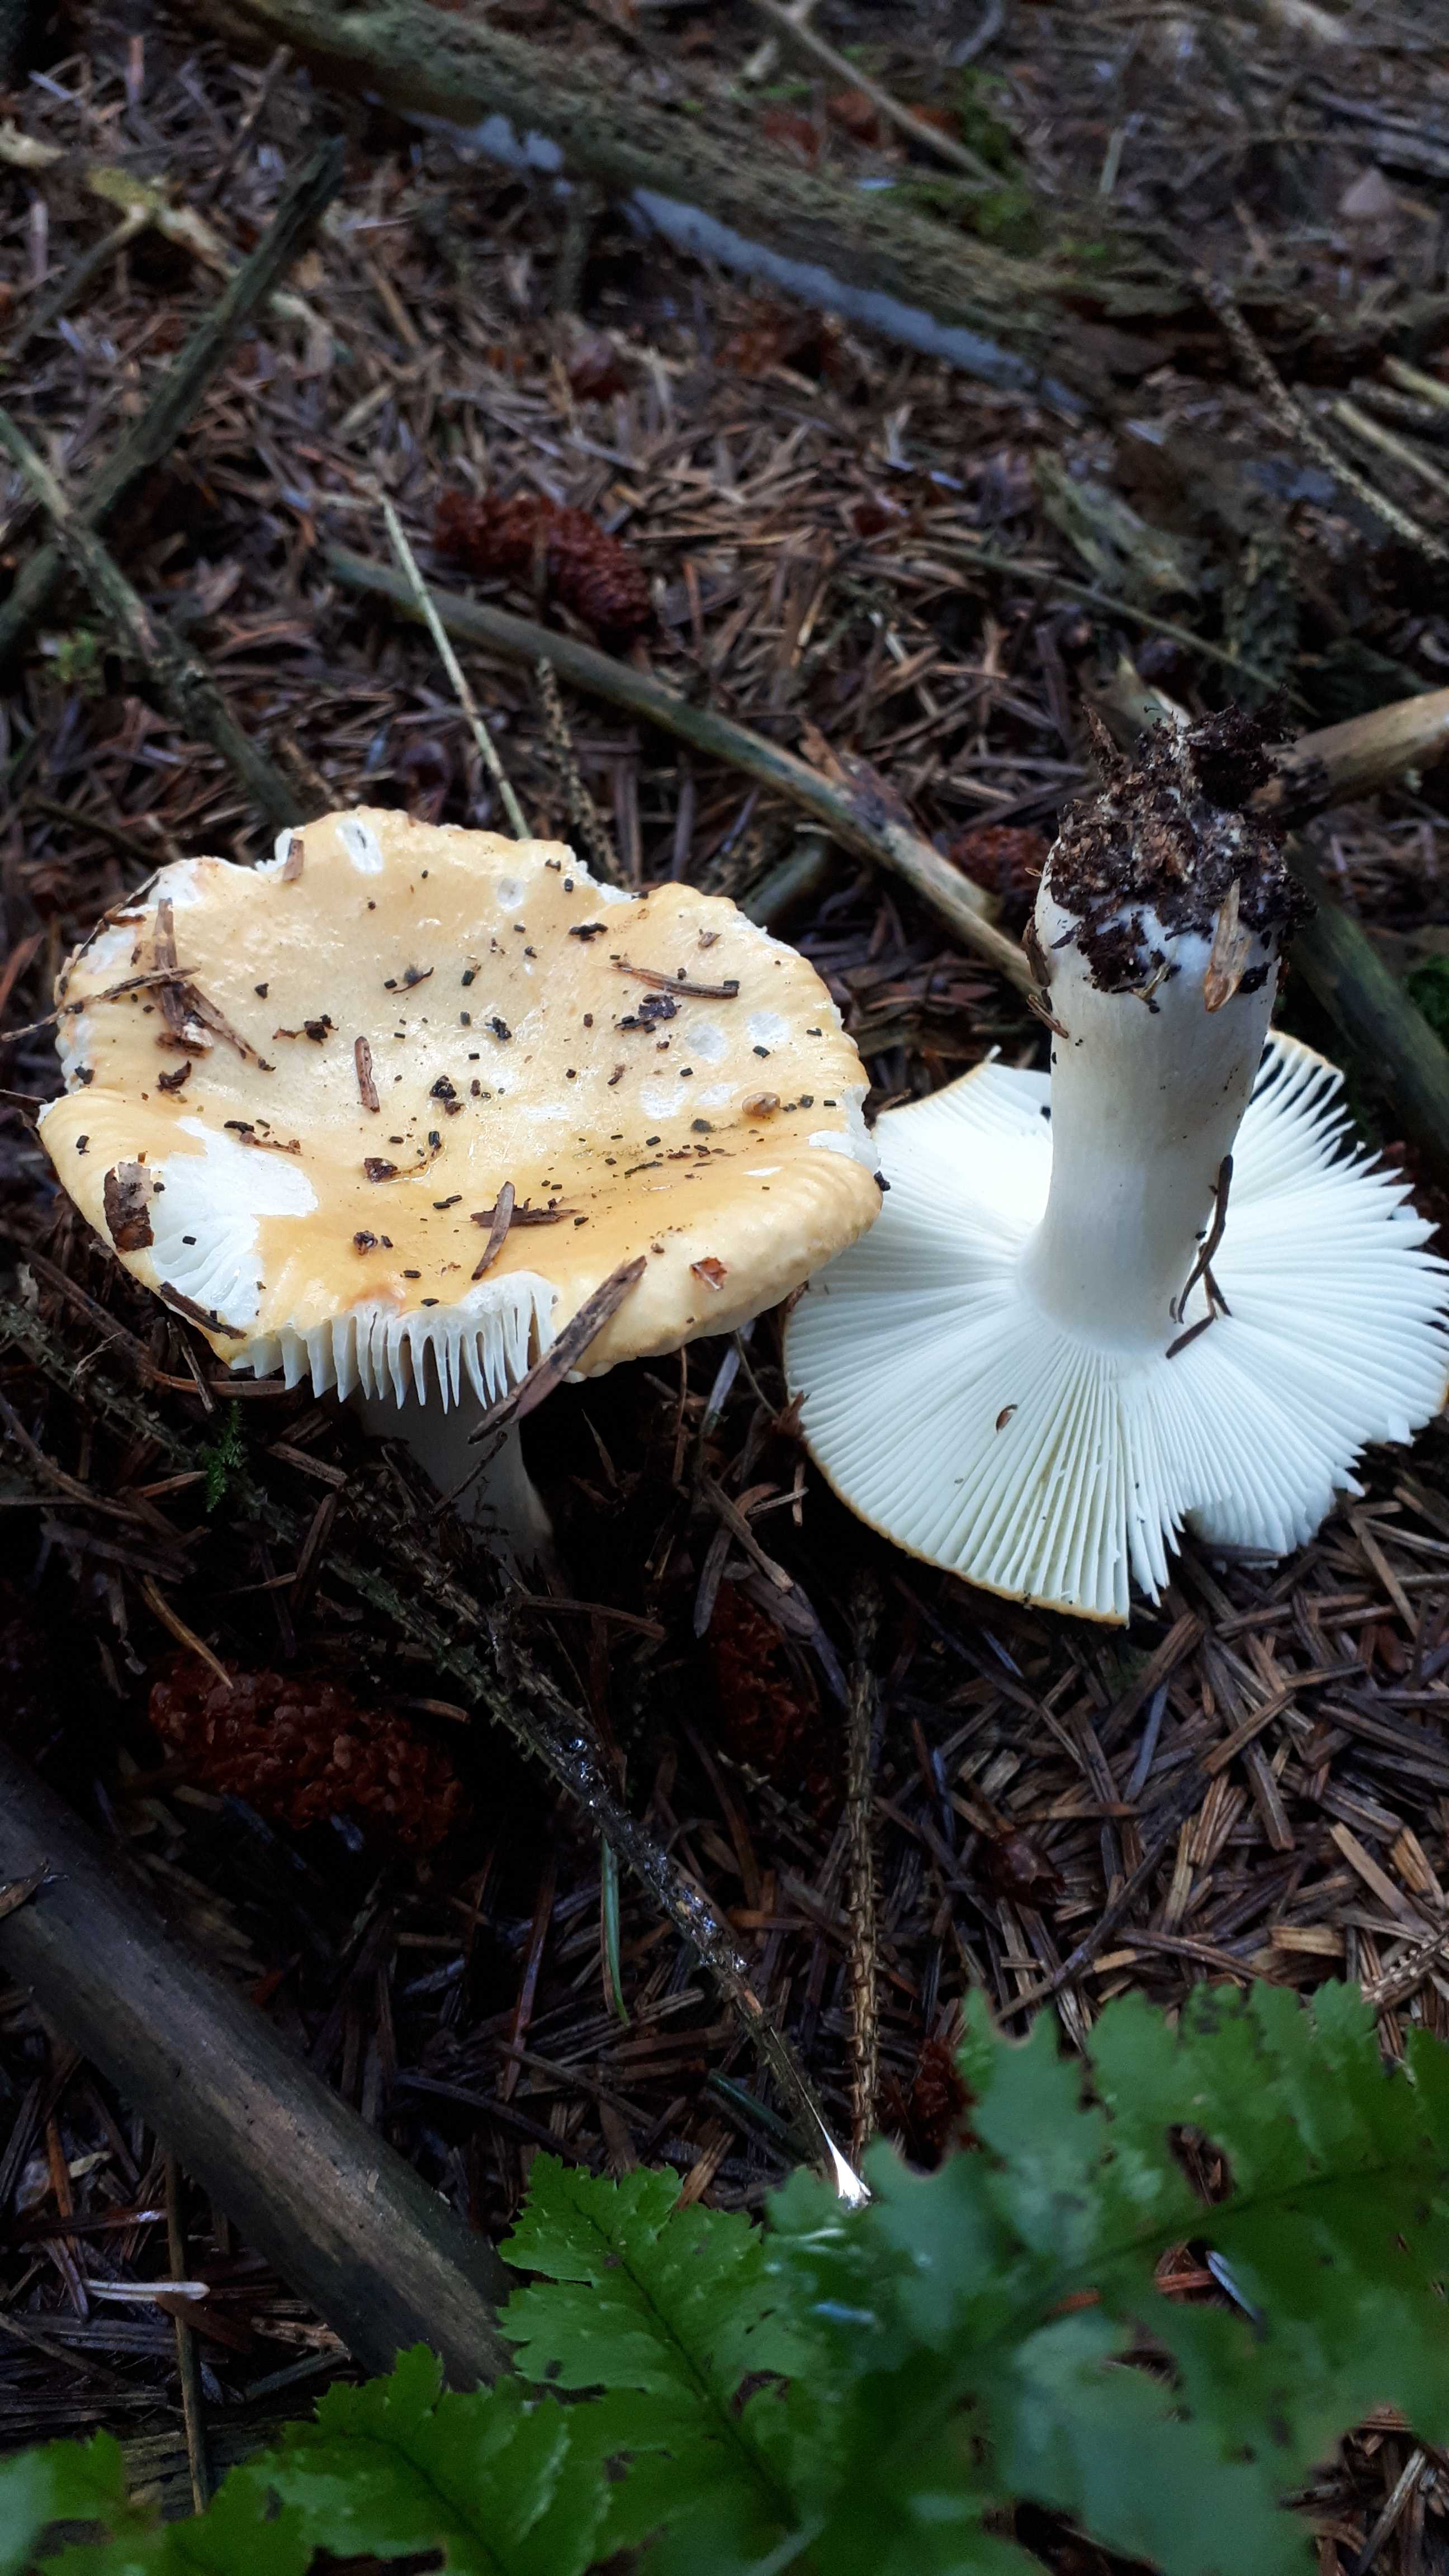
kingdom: Fungi
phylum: Basidiomycota
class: Agaricomycetes
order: Russulales
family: Russulaceae
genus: Russula
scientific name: Russula ochroleuca
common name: okkergul skørhat
